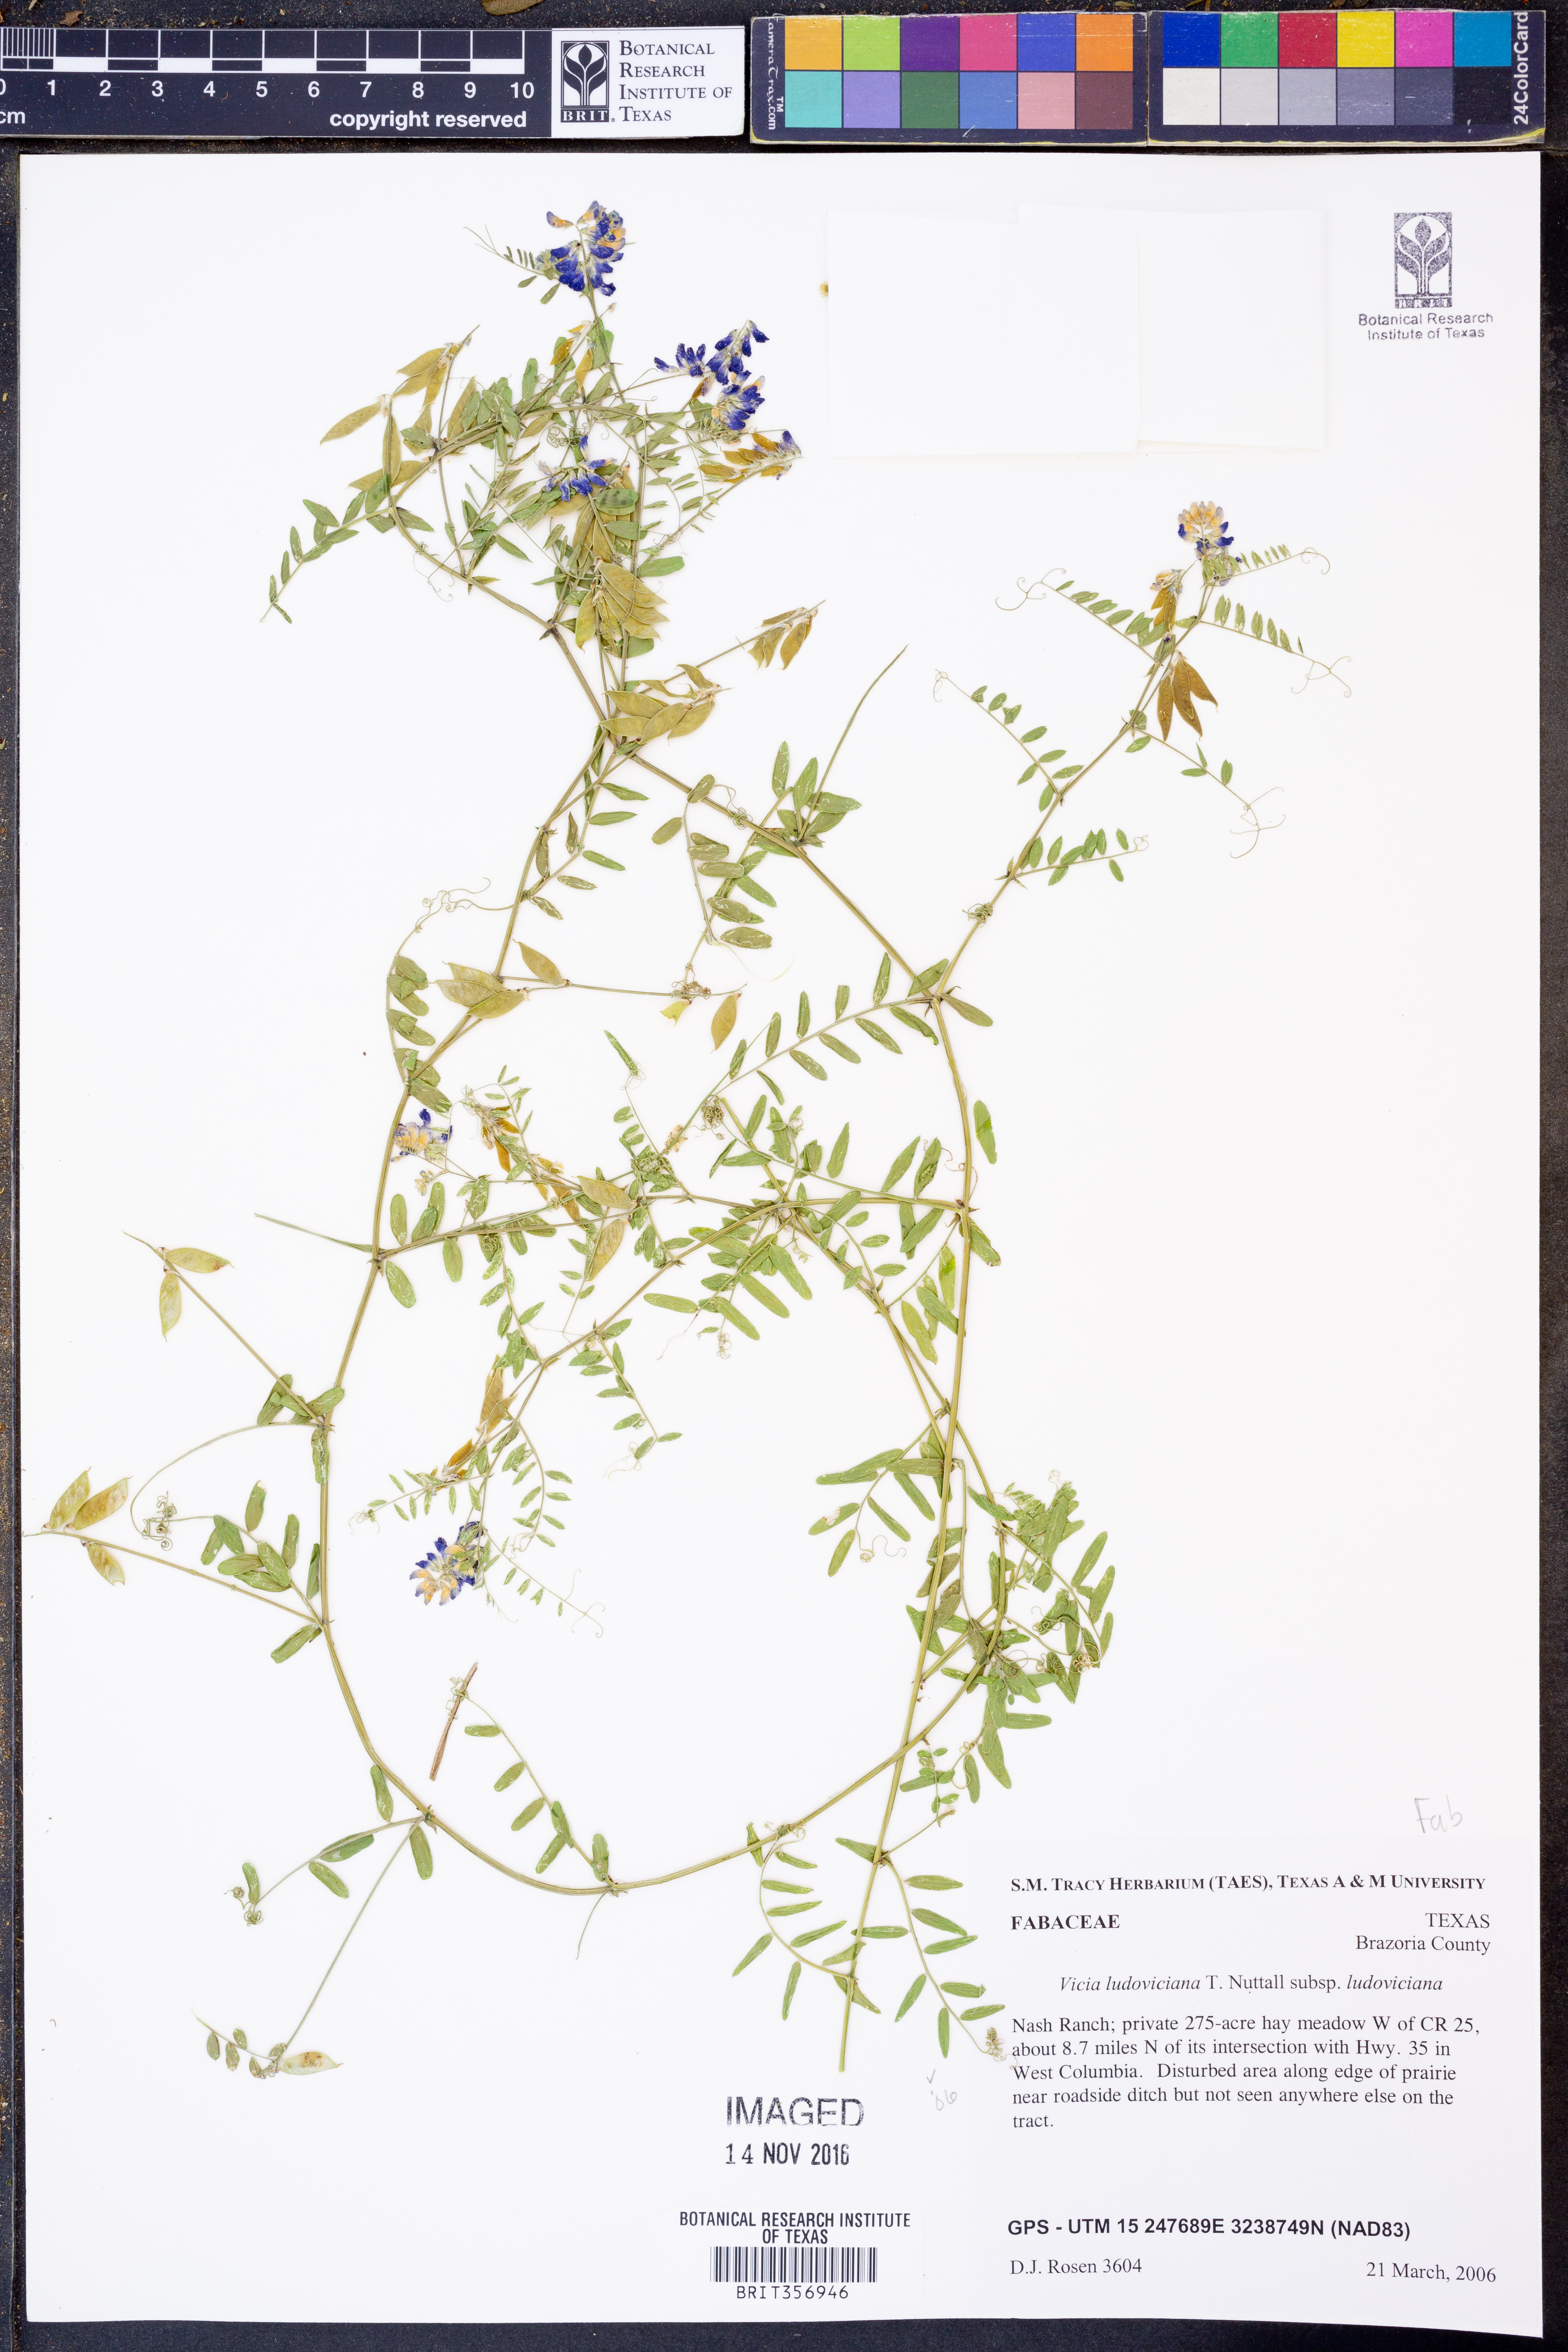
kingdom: Plantae
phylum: Tracheophyta
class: Magnoliopsida
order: Fabales
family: Fabaceae
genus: Vicia
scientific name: Vicia ludoviciana
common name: Louisiana vetch
